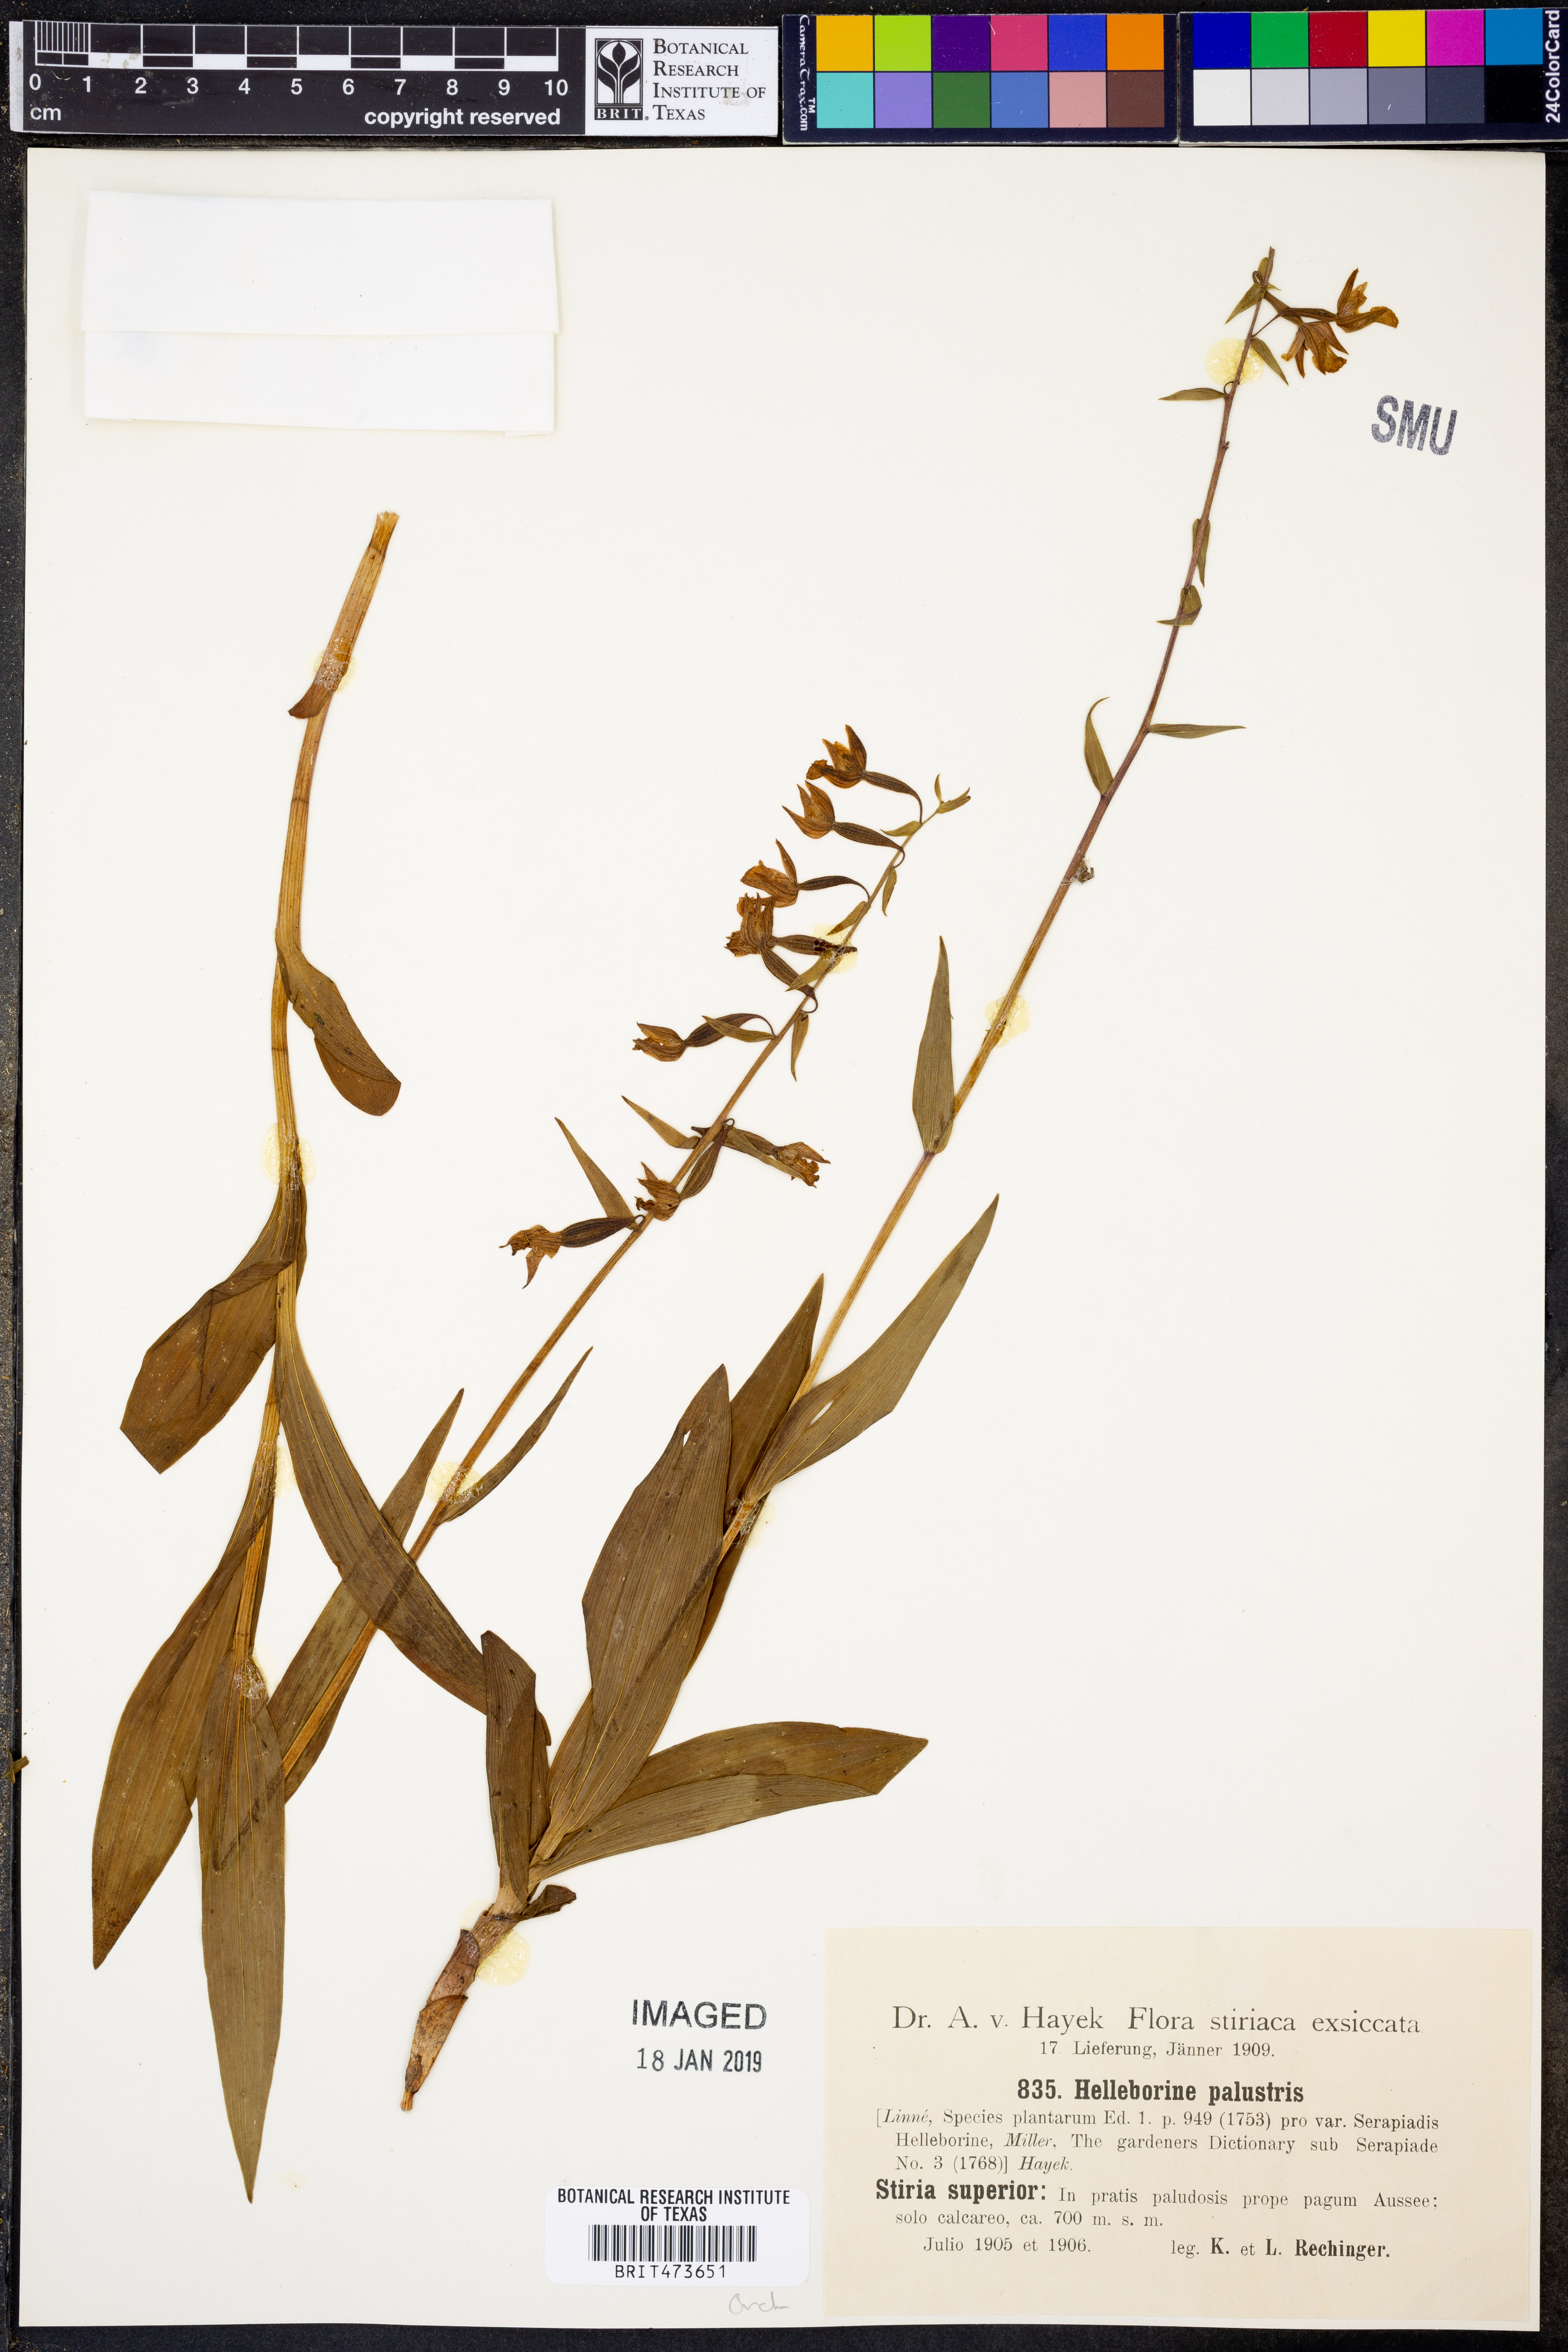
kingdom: Plantae
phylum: Tracheophyta
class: Liliopsida
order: Asparagales
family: Orchidaceae
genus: Epipactis
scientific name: Epipactis palustris
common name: Marsh helleborine
